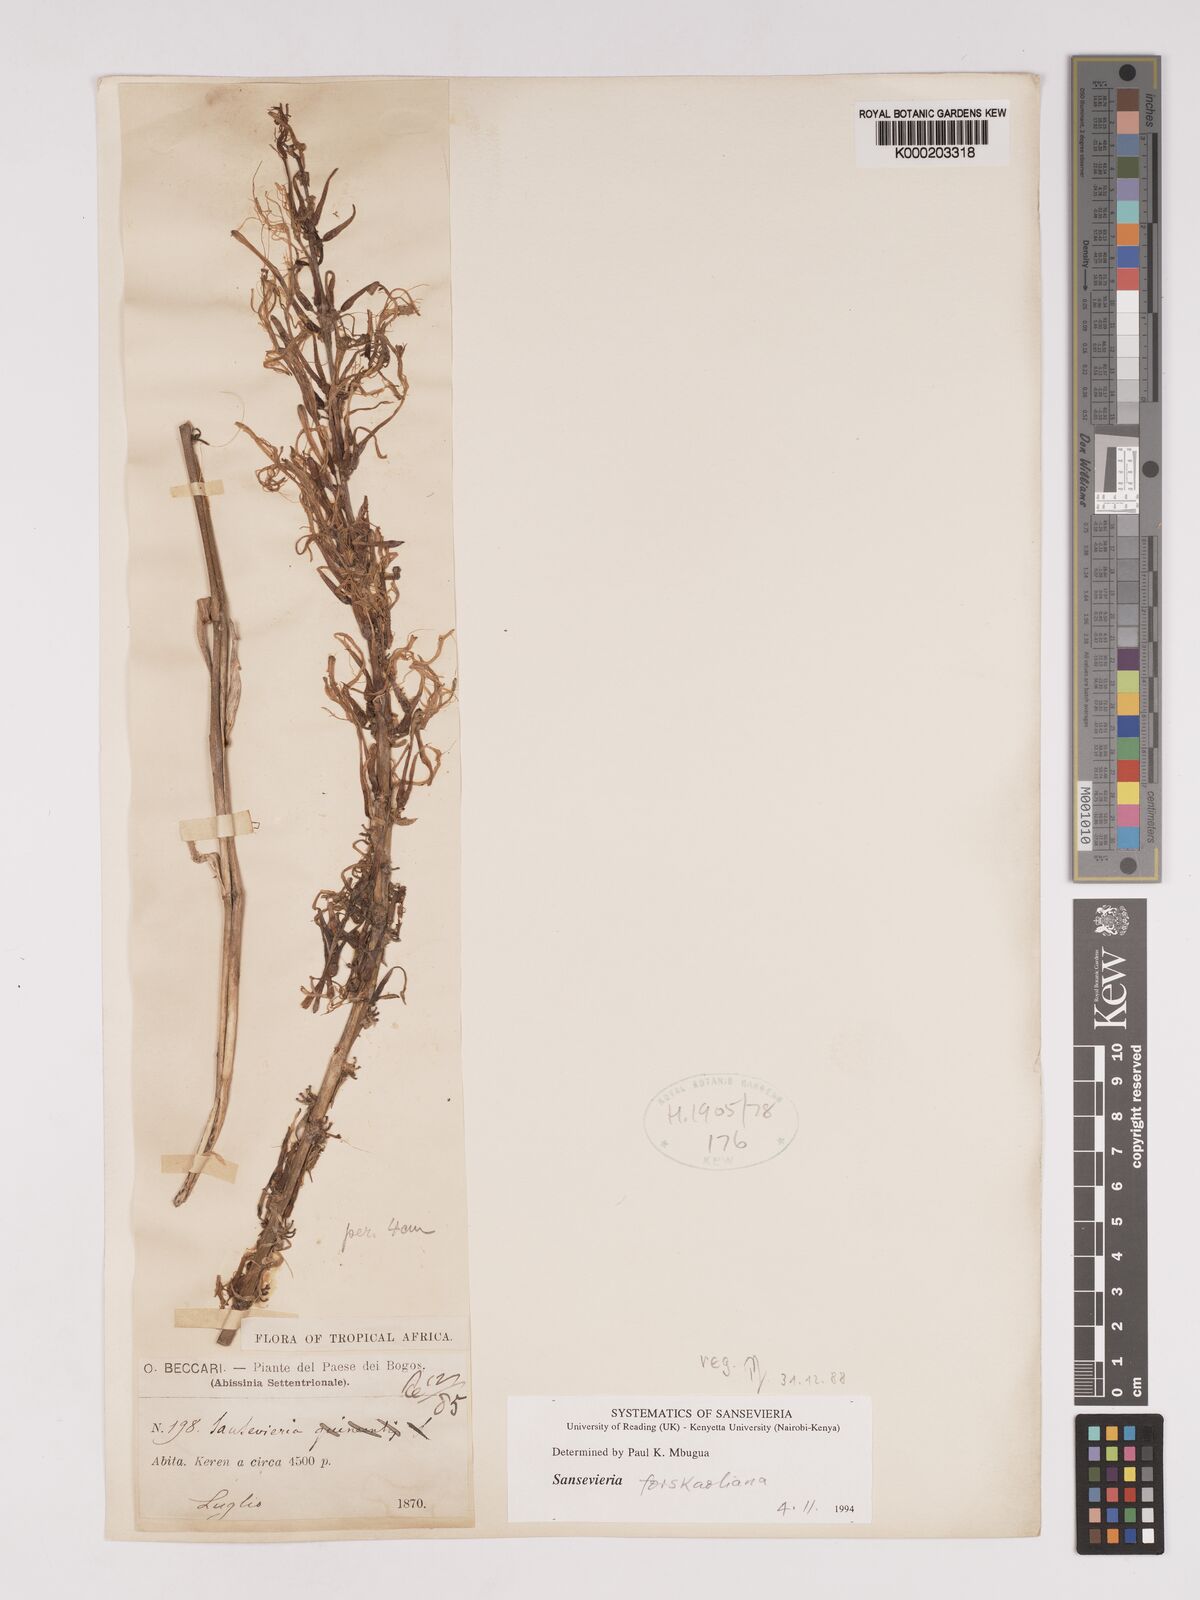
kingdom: Plantae
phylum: Tracheophyta
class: Liliopsida
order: Asparagales
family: Asparagaceae
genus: Dracaena
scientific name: Dracaena
